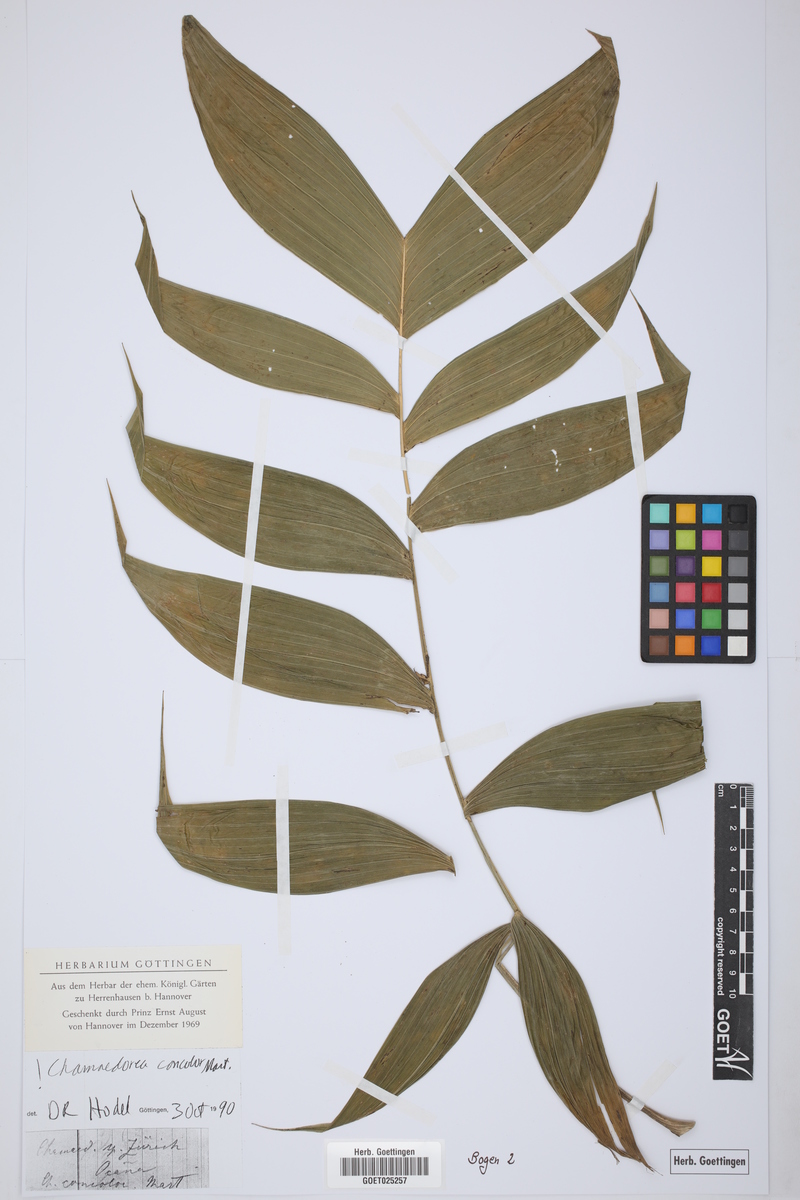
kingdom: Plantae
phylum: Tracheophyta
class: Liliopsida
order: Arecales
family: Arecaceae
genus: Chamaedorea
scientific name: Chamaedorea pinnatifrons
